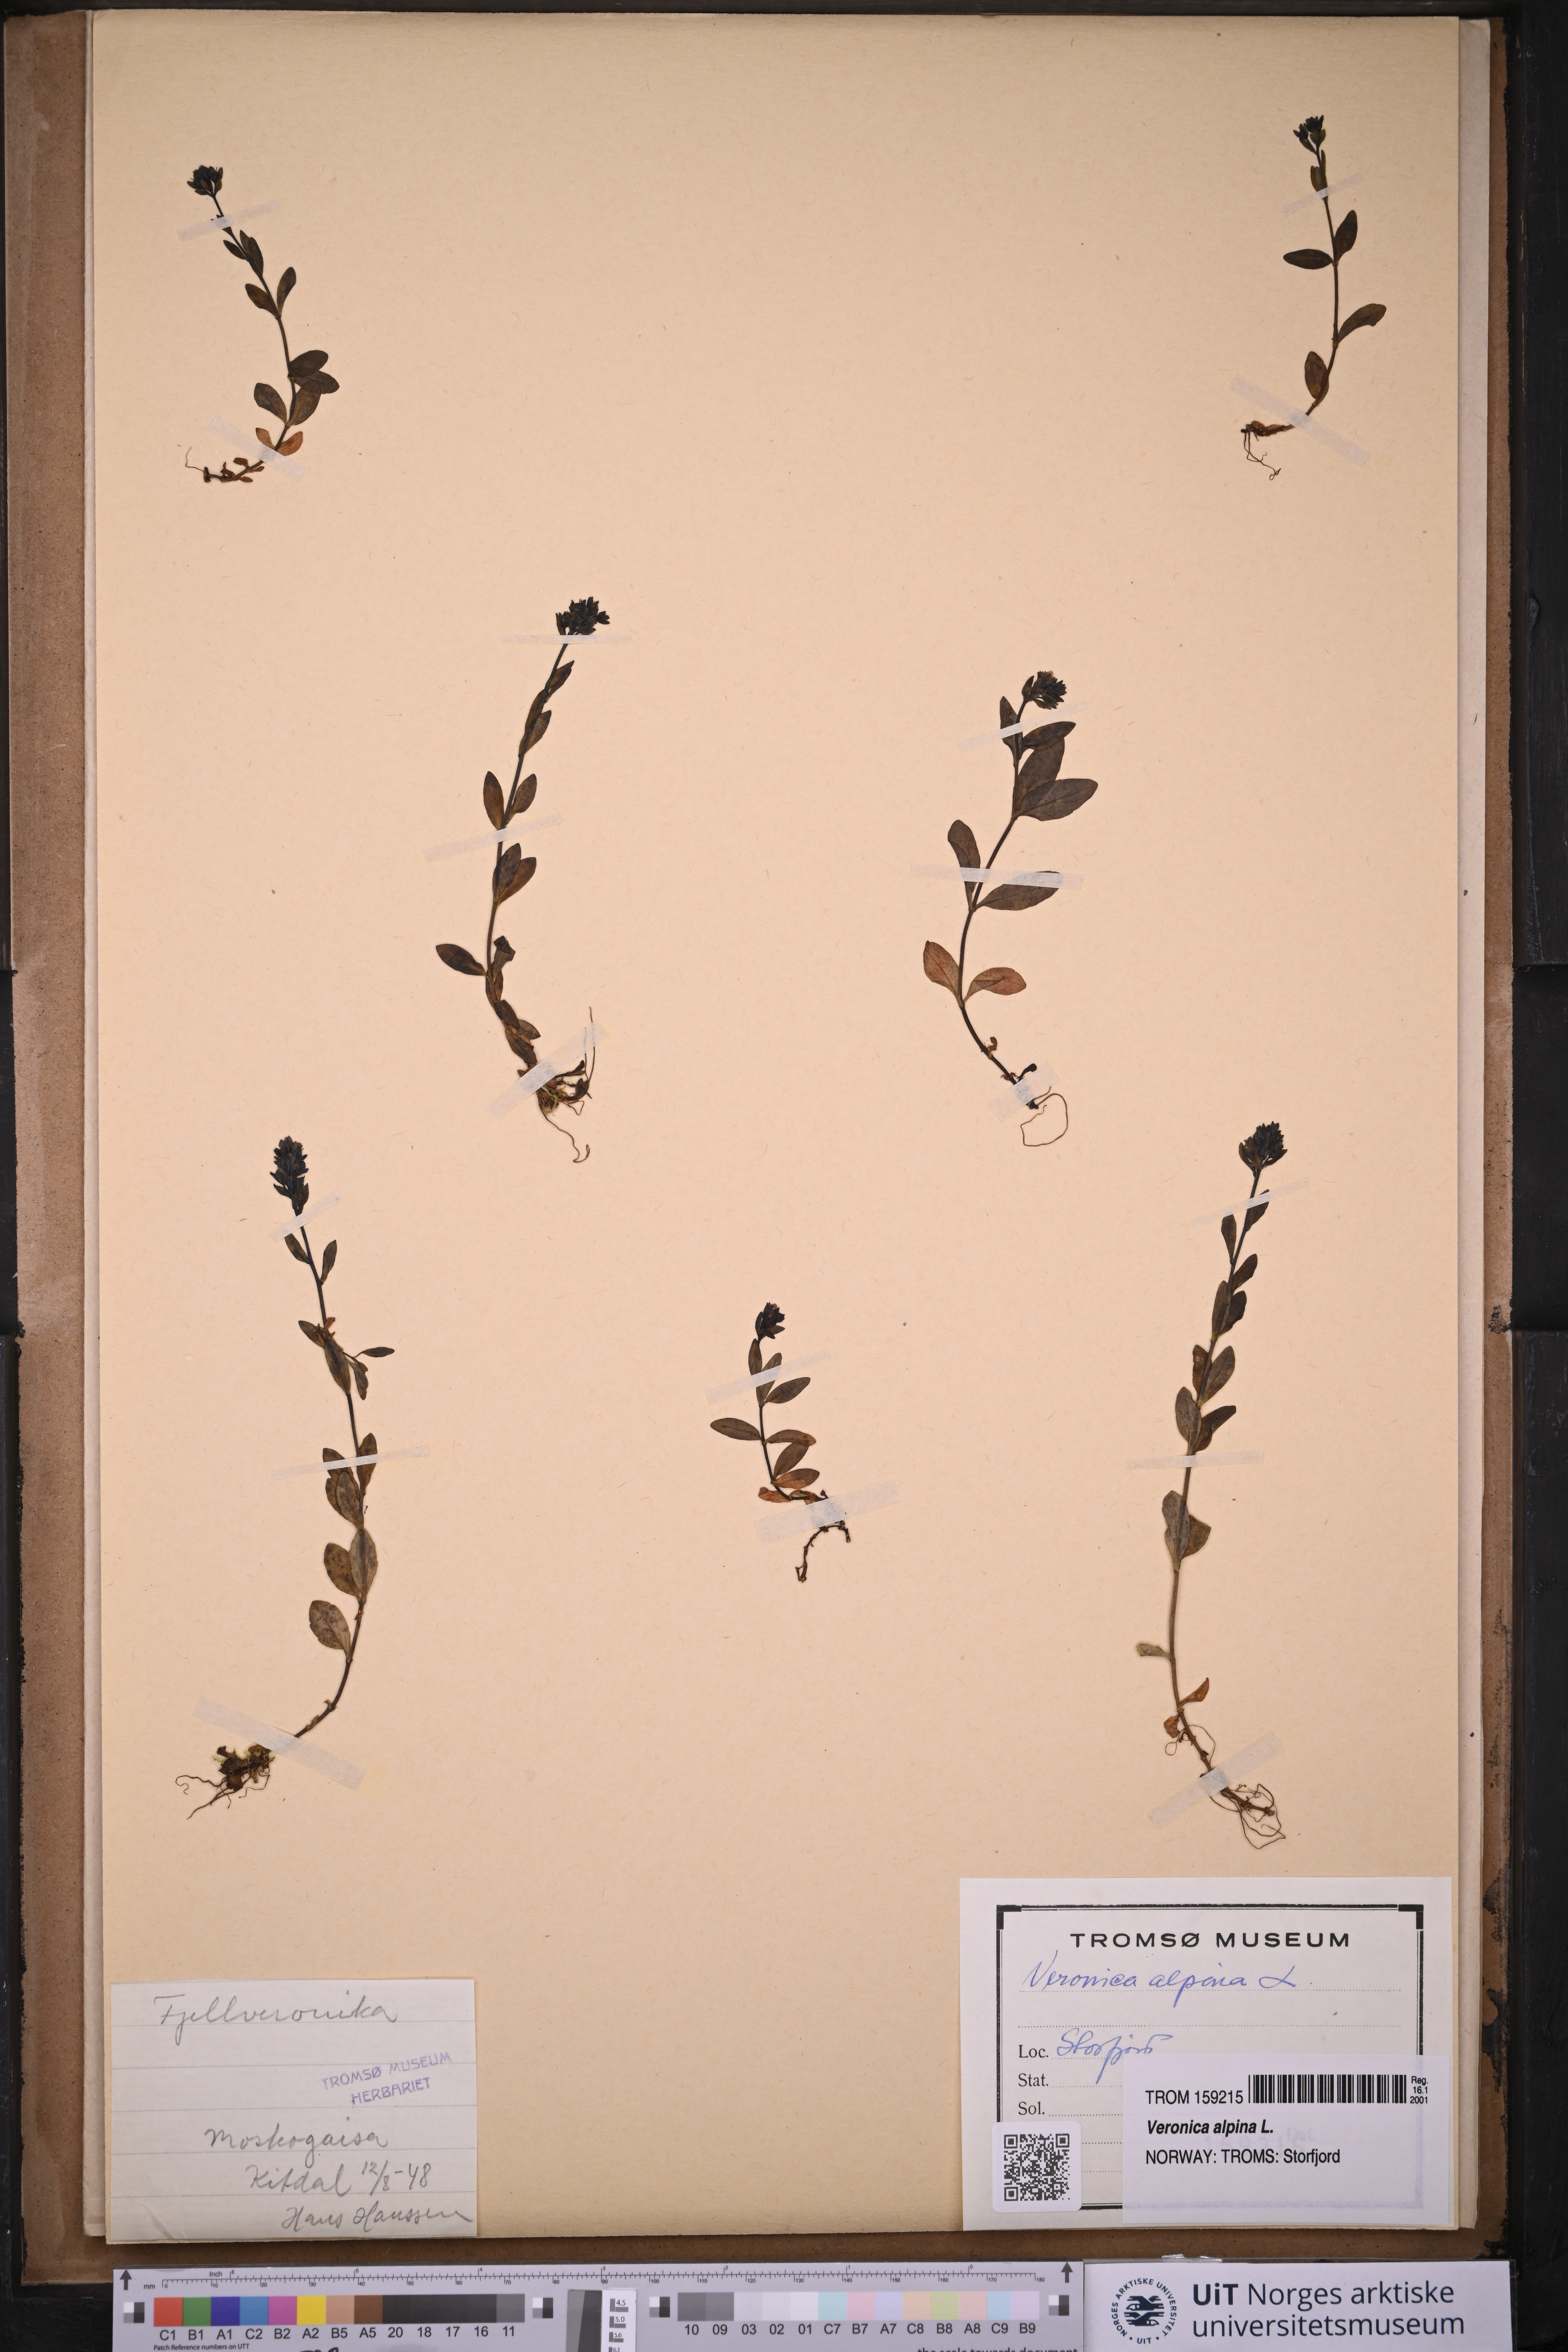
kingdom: Plantae
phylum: Tracheophyta
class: Magnoliopsida
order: Lamiales
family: Plantaginaceae
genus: Veronica
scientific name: Veronica alpina
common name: Alpine speedwell
